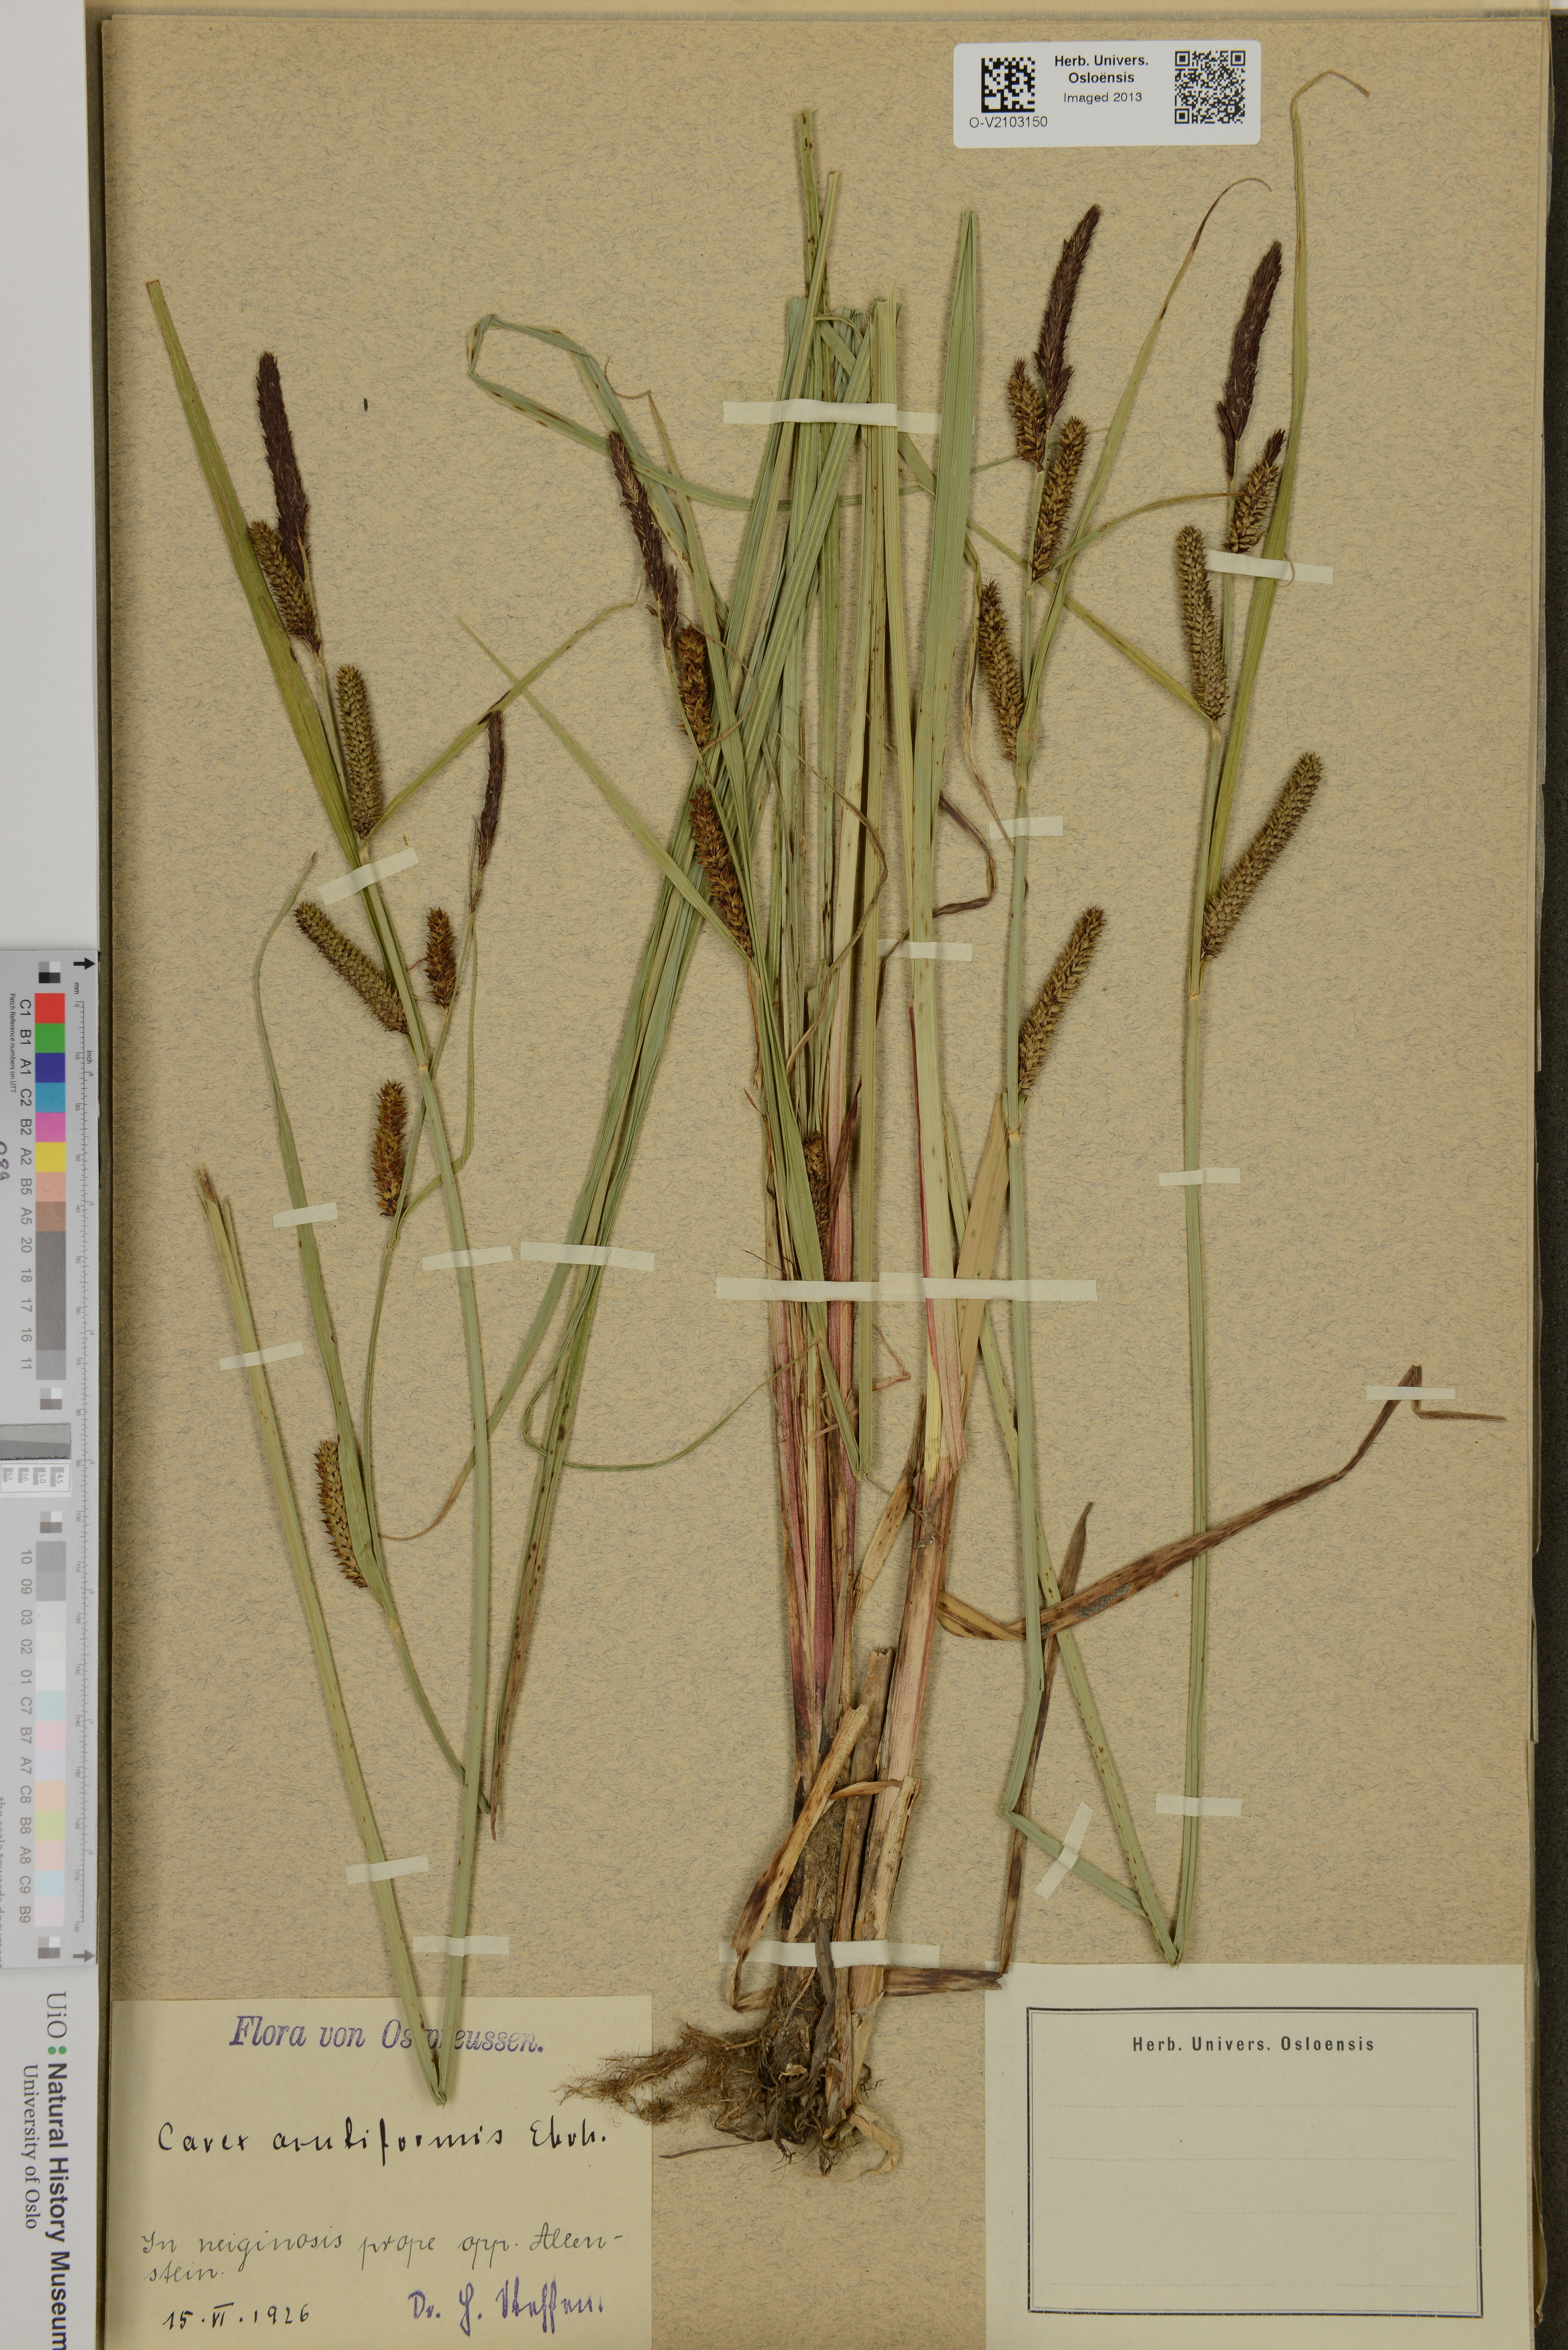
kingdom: Plantae
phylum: Tracheophyta
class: Liliopsida
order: Poales
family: Cyperaceae
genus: Carex
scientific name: Carex acutiformis
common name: Lesser pond-sedge
